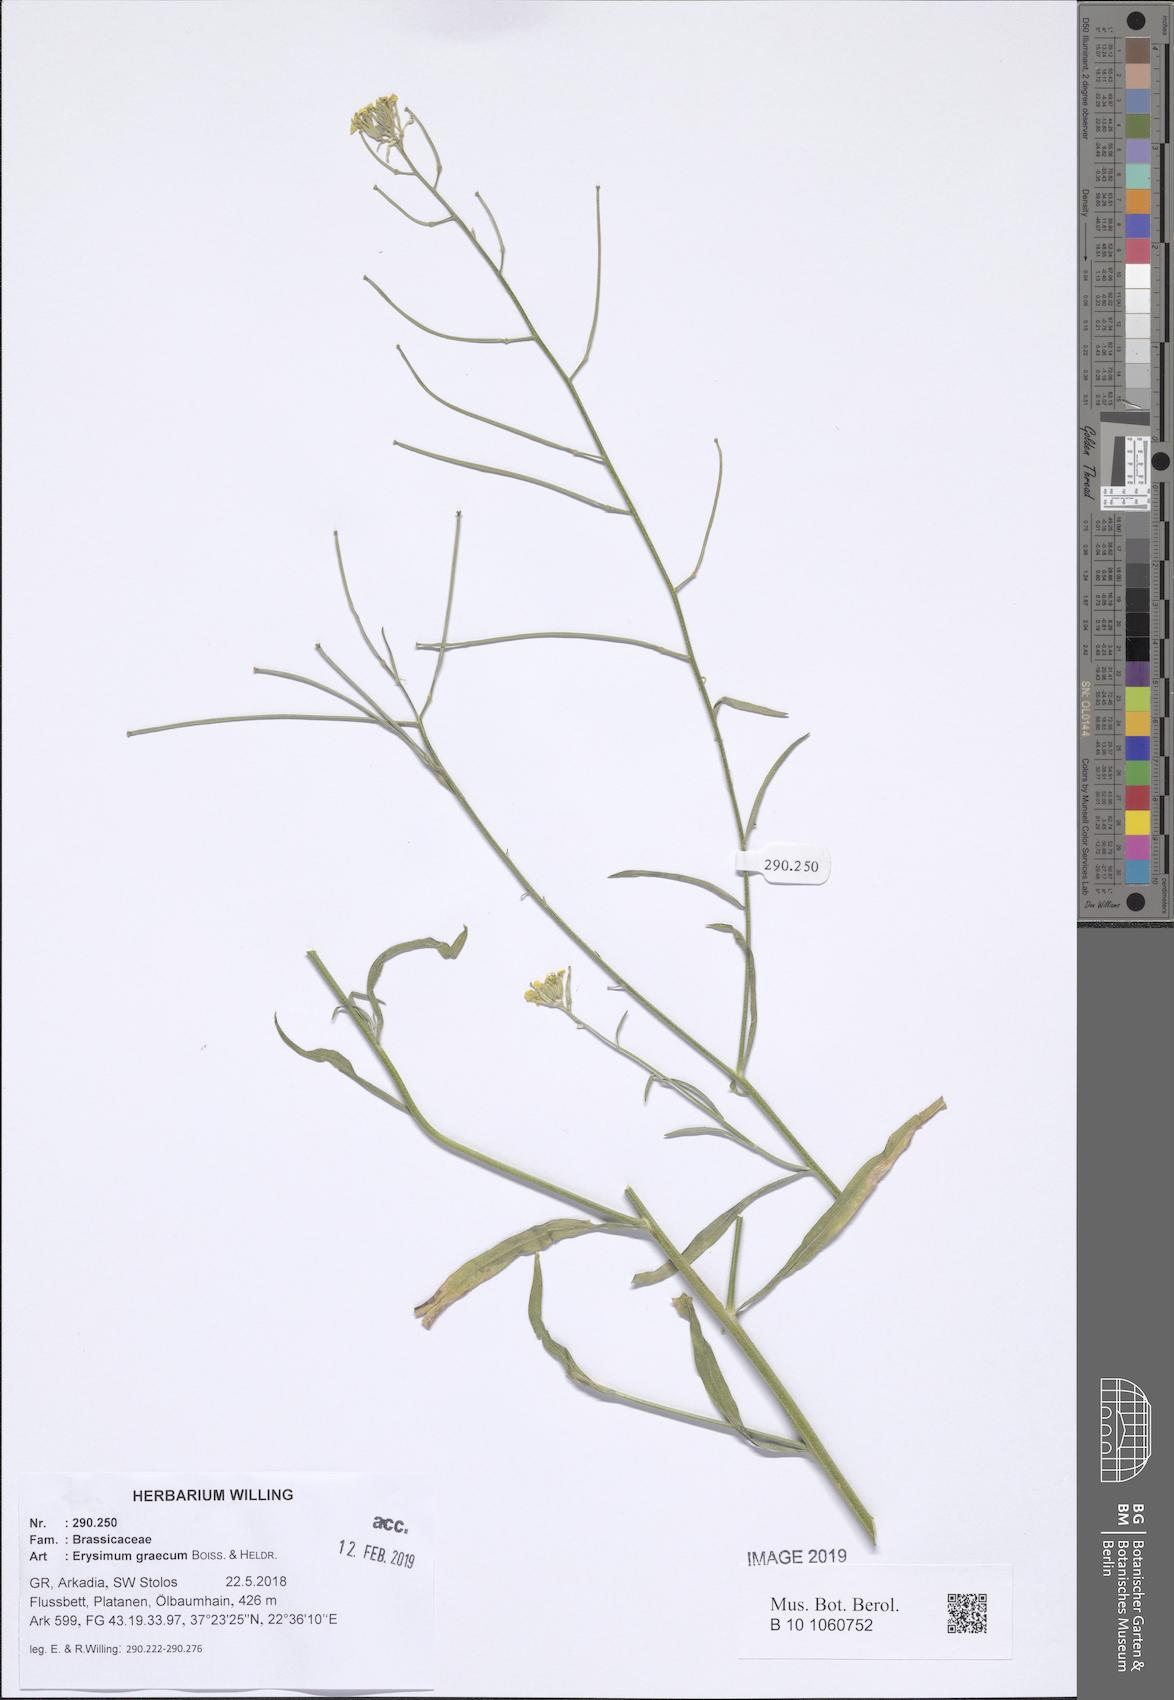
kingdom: Plantae
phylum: Tracheophyta
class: Magnoliopsida
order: Brassicales
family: Brassicaceae
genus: Erysimum
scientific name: Erysimum graecum
